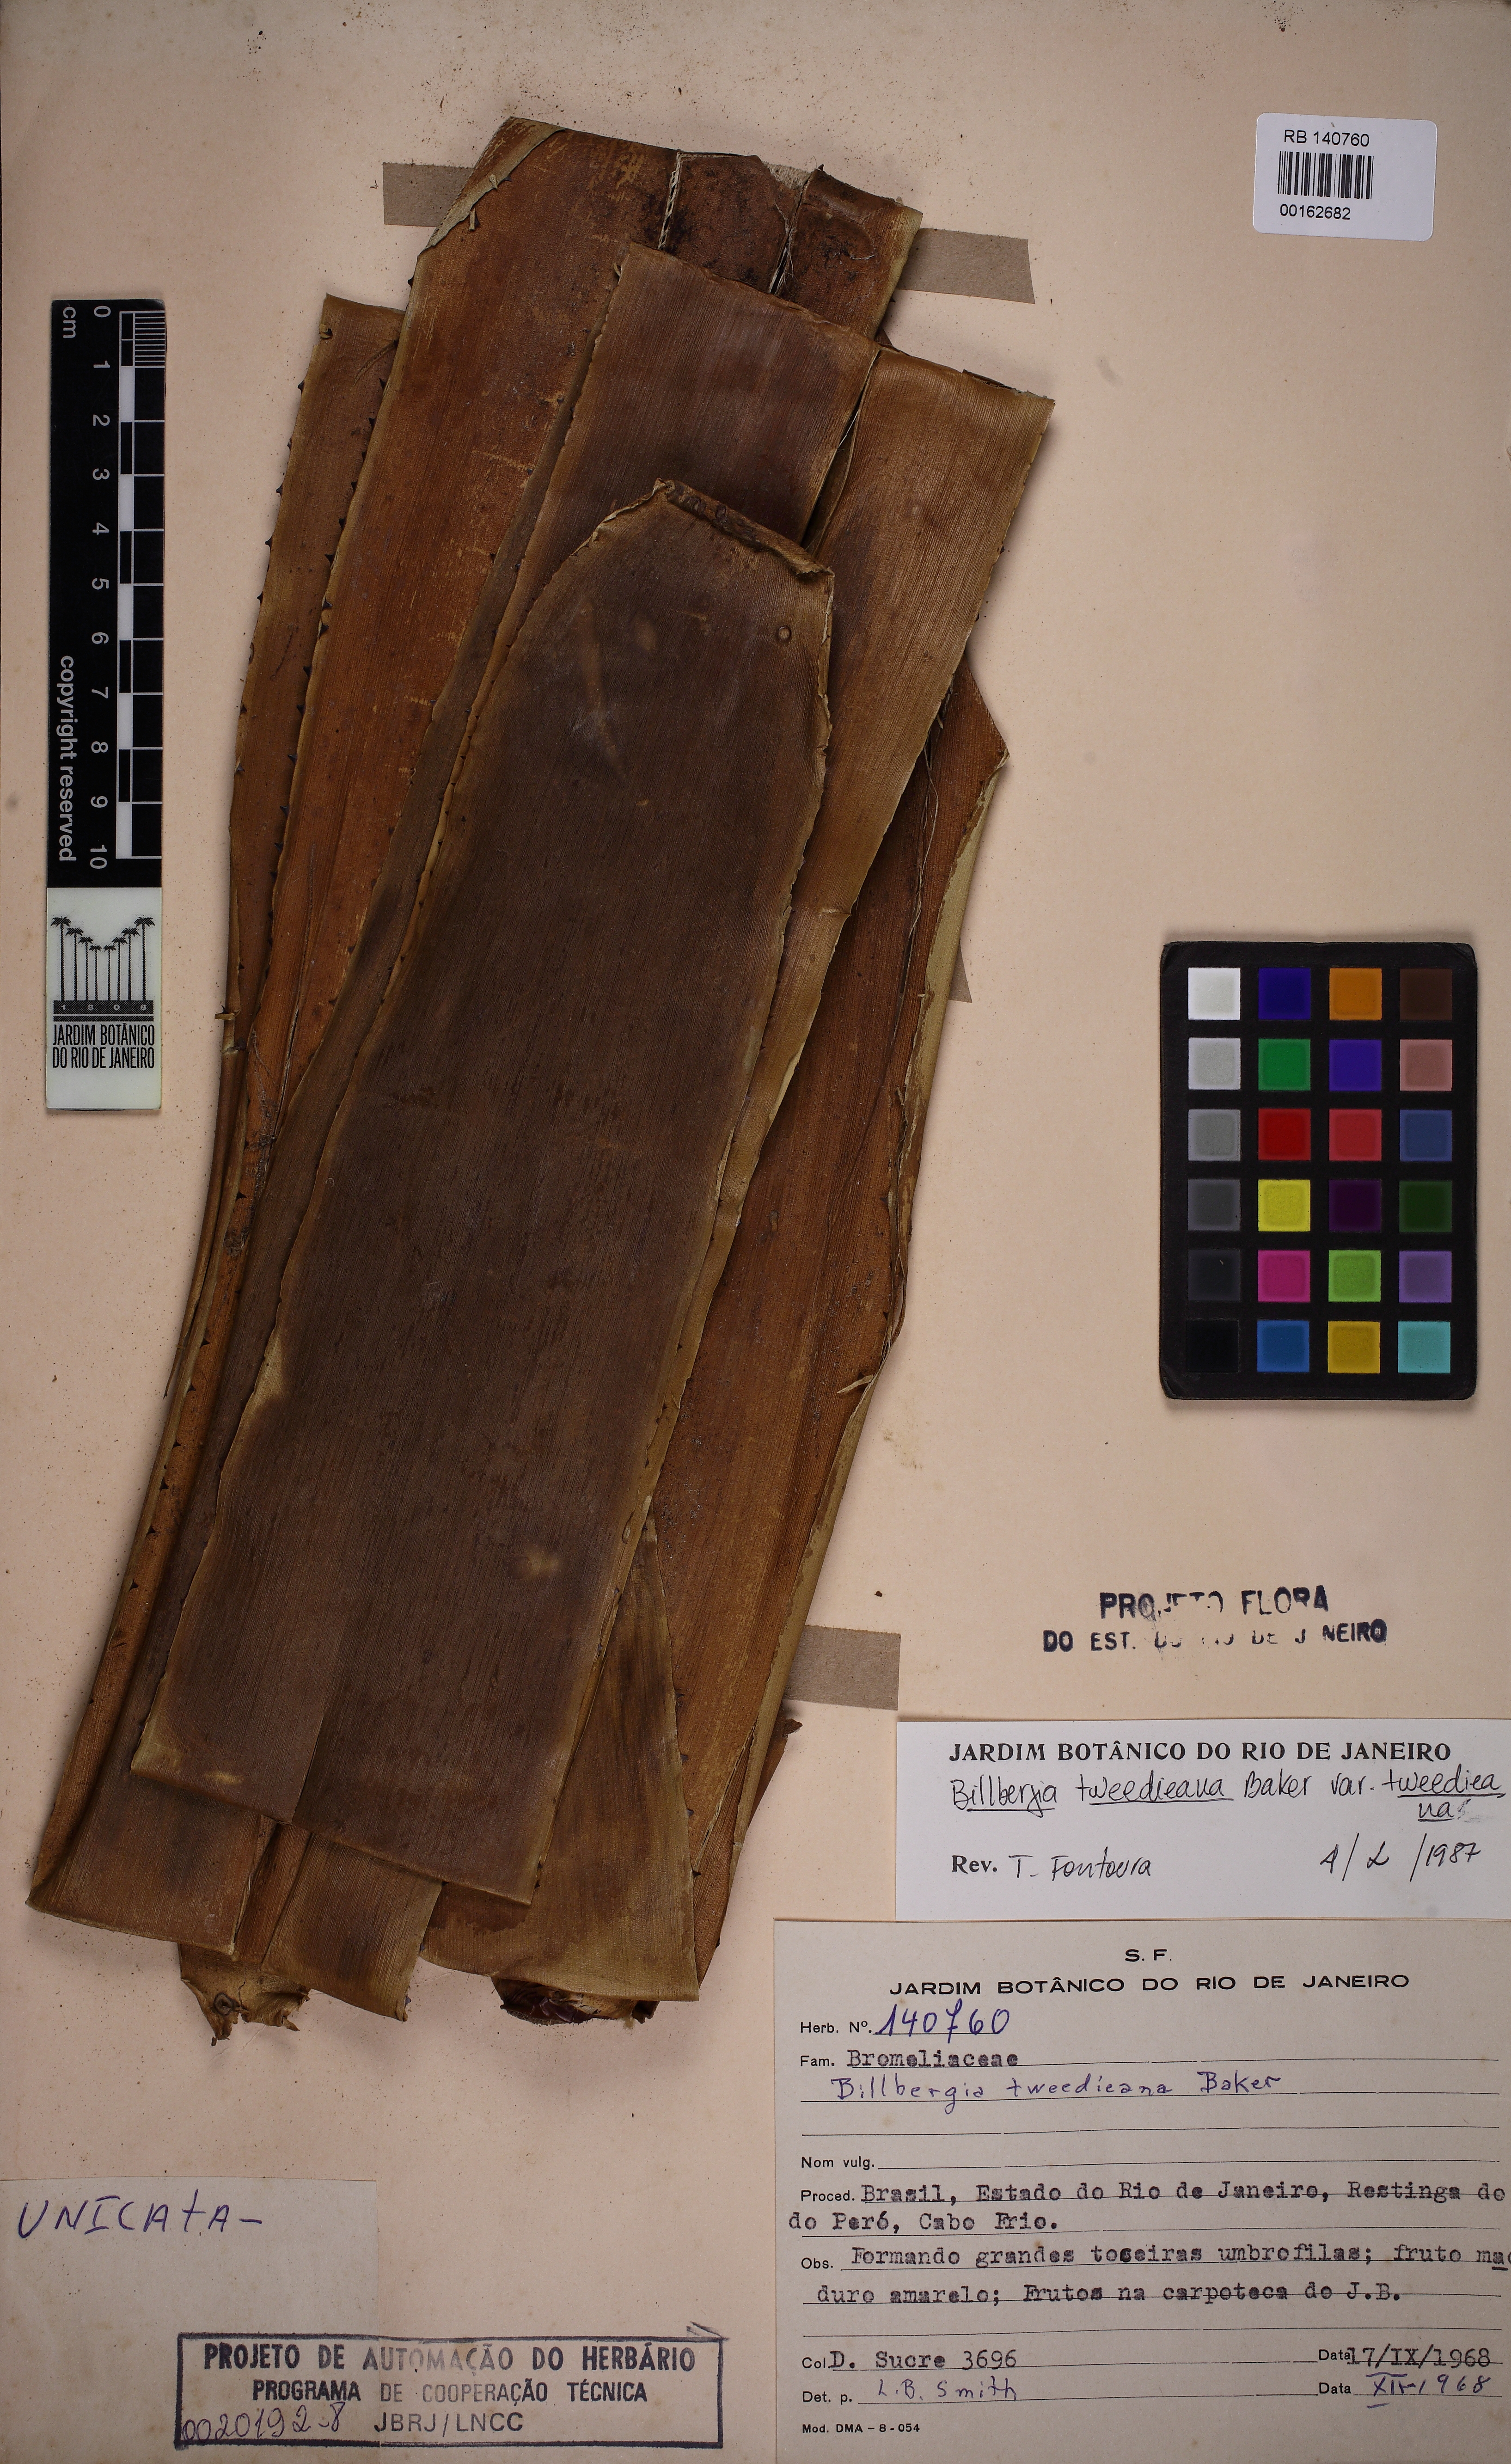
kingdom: Plantae
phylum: Tracheophyta
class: Liliopsida
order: Poales
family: Bromeliaceae
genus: Billbergia
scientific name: Billbergia tweedieana
